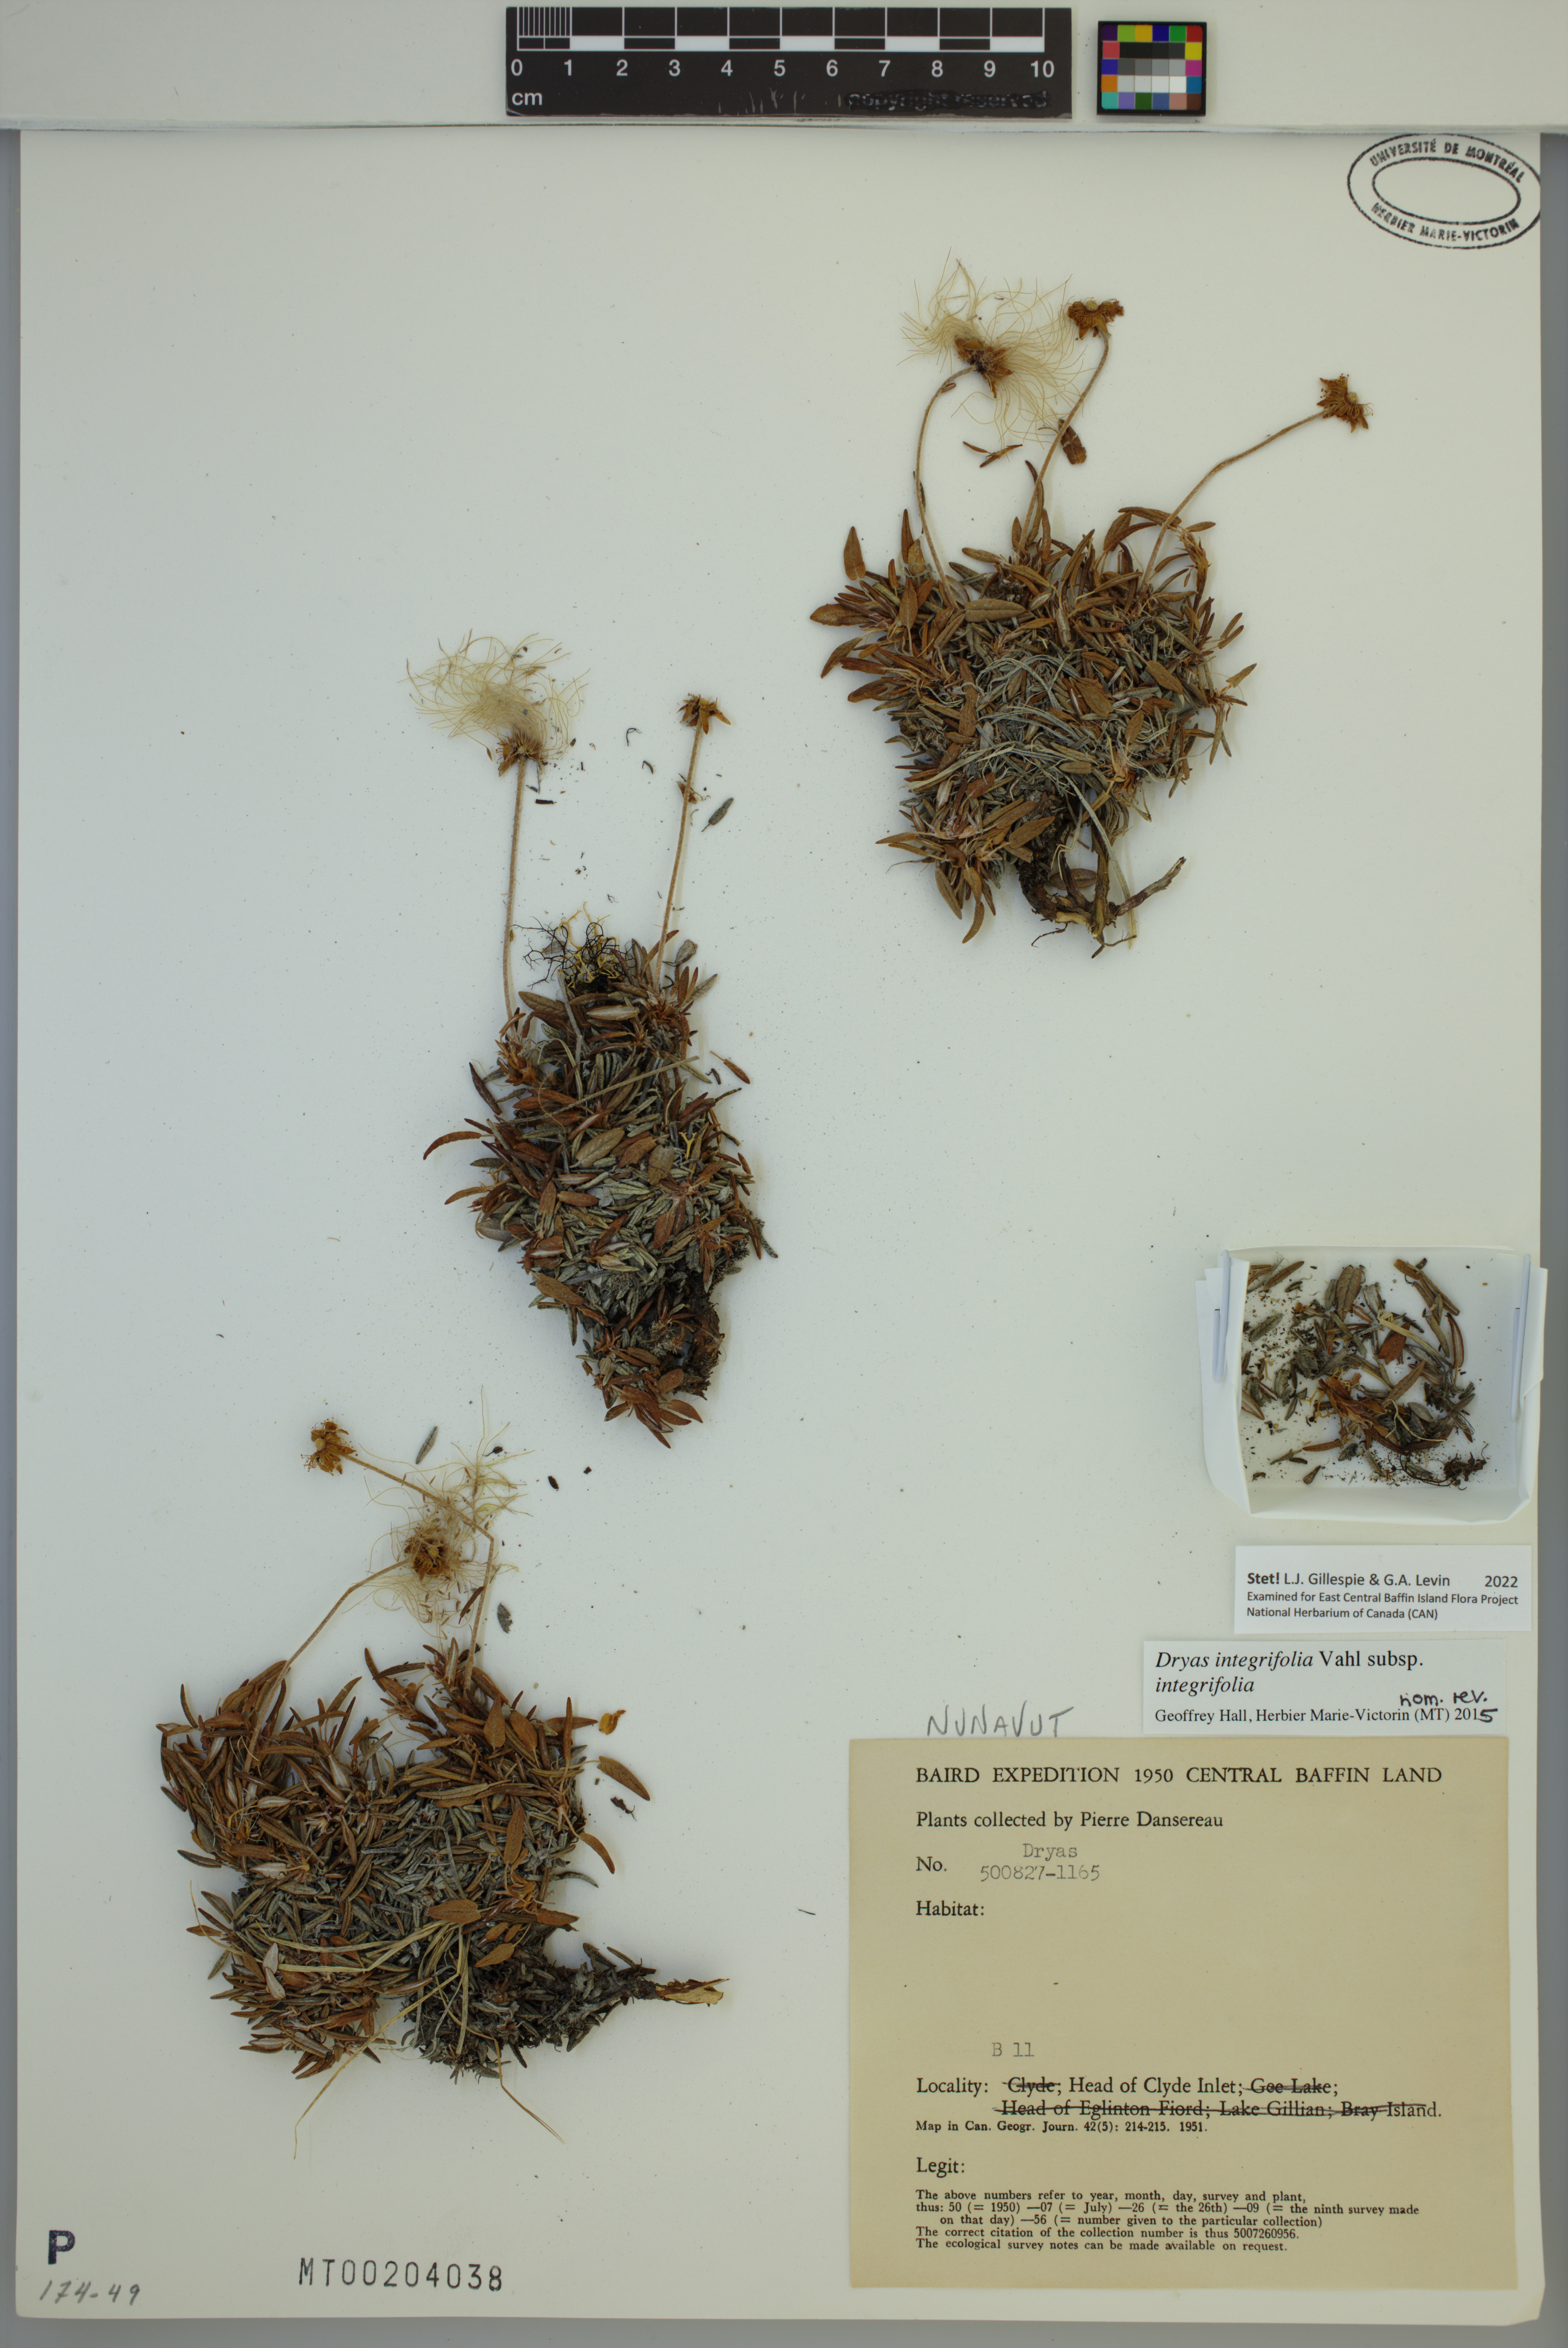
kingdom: Plantae
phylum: Tracheophyta
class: Magnoliopsida
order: Rosales
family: Rosaceae
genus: Dryas
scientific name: Dryas integrifolia
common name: Entire-leaved mountain avens
